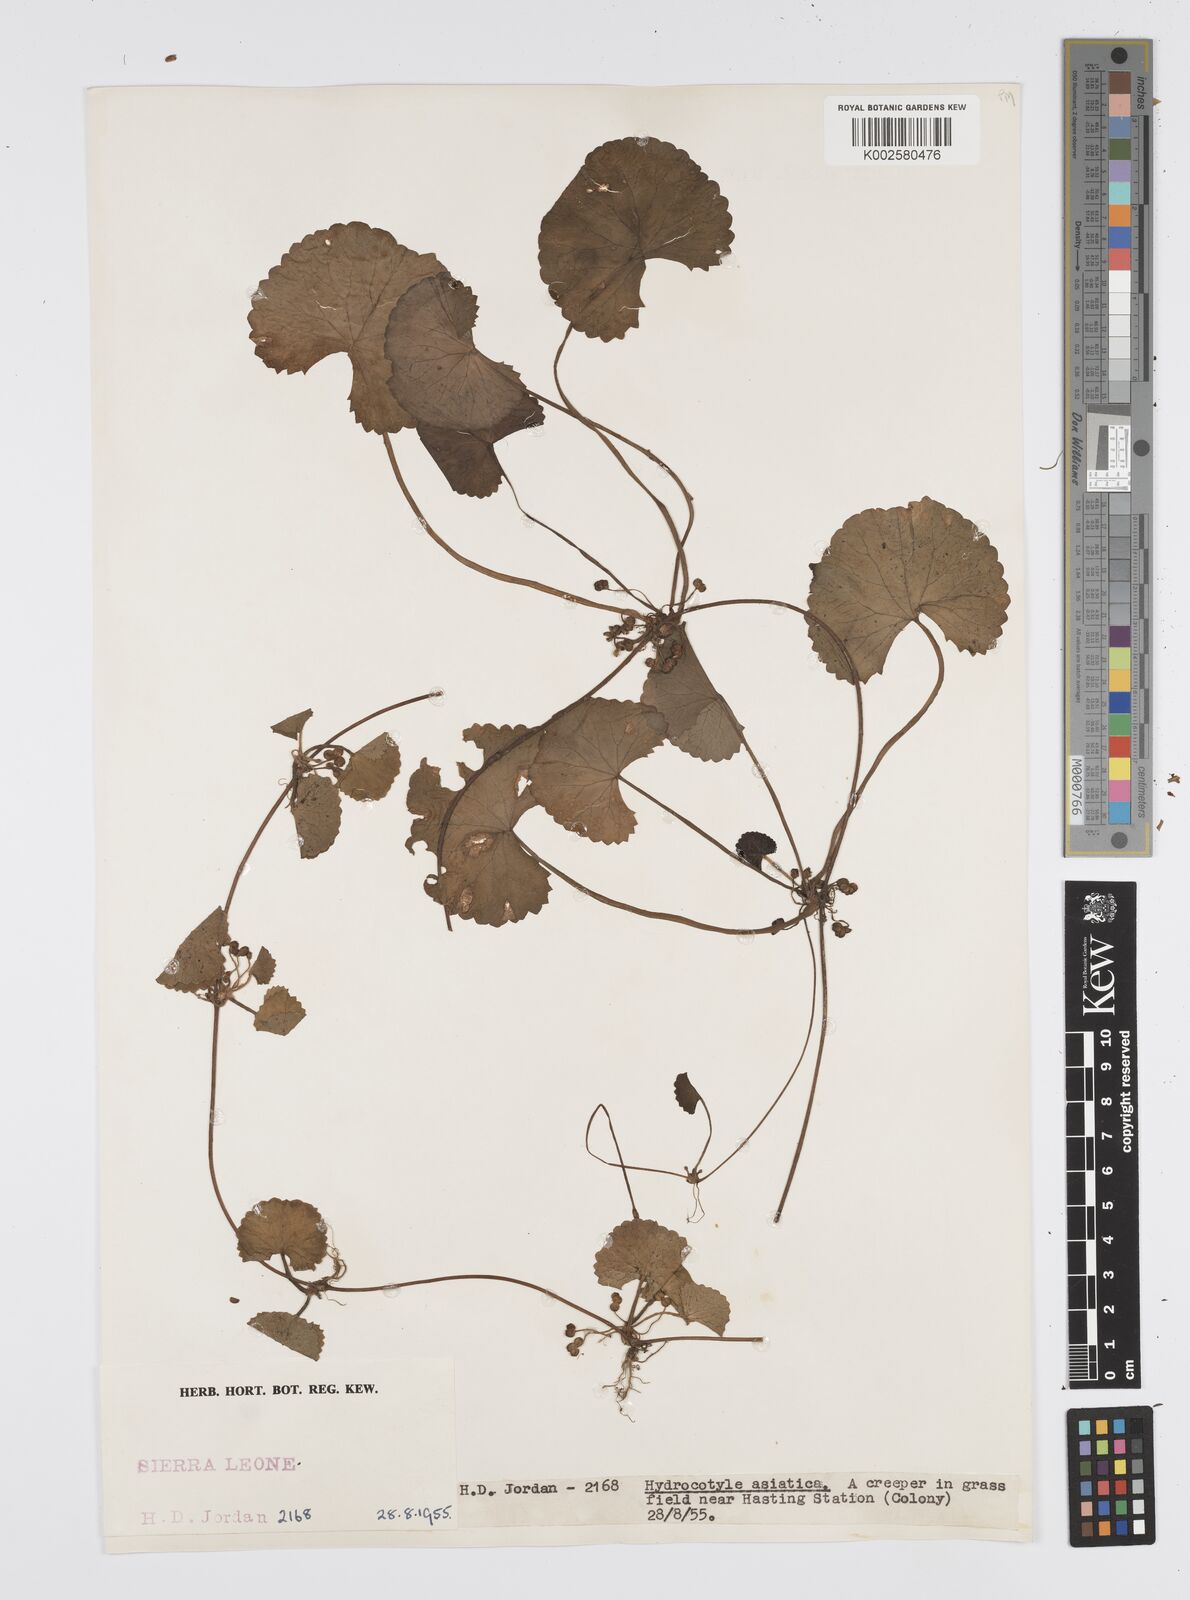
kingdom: Plantae
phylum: Tracheophyta
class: Magnoliopsida
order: Apiales
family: Apiaceae
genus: Centella
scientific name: Centella asiatica
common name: Spadeleaf
